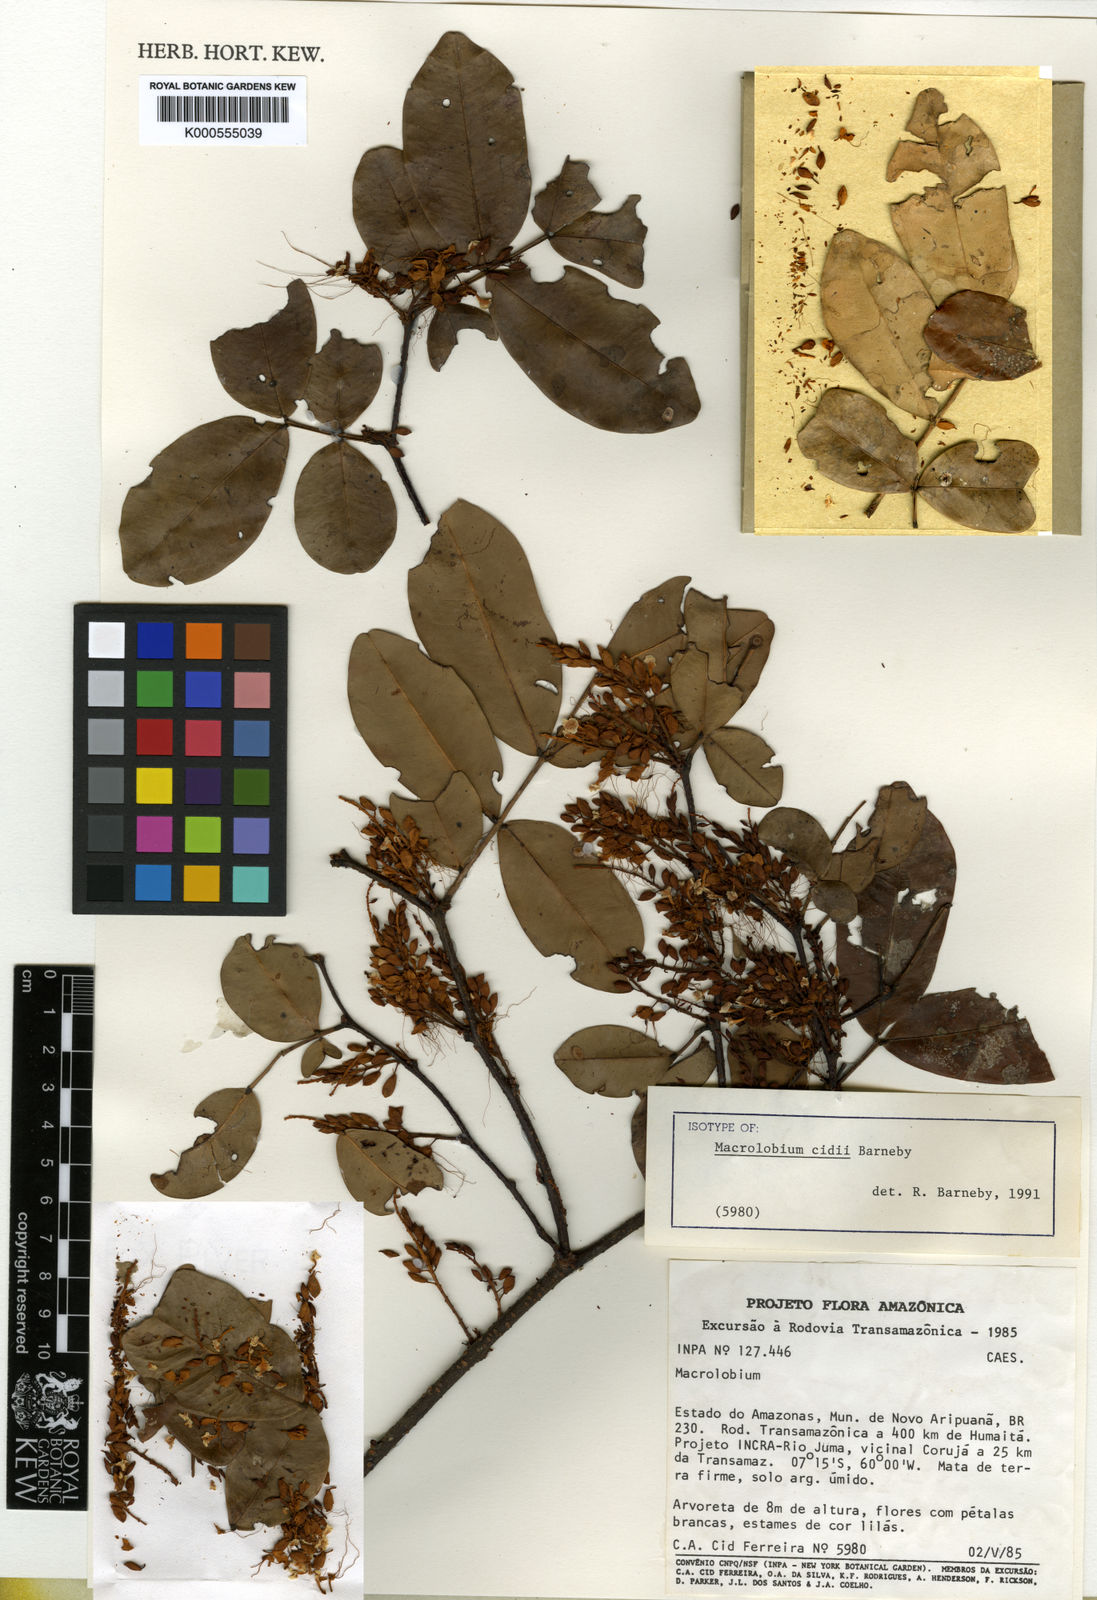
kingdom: Plantae
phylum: Tracheophyta
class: Magnoliopsida
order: Fabales
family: Fabaceae
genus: Macrolobium
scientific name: Macrolobium cidii
